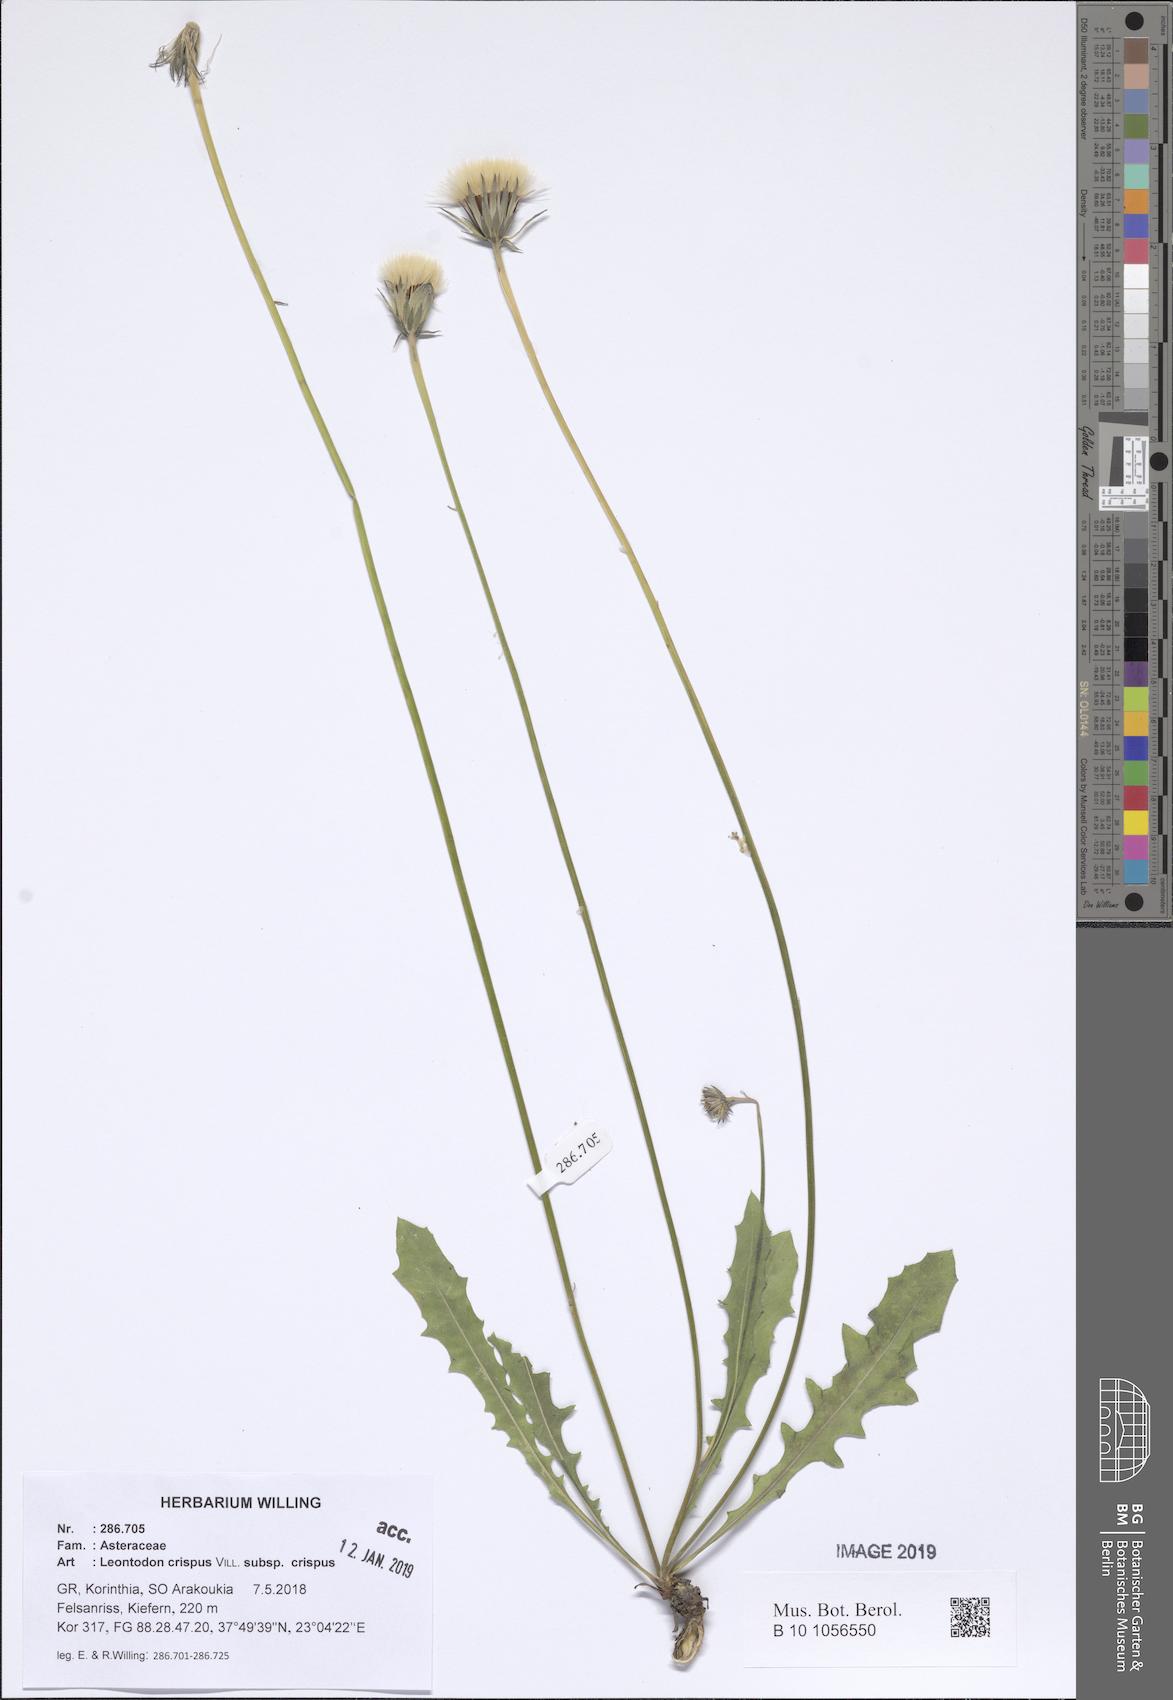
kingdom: Plantae
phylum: Tracheophyta
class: Magnoliopsida
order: Asterales
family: Asteraceae
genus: Leontodon
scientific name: Leontodon hyoseroides
